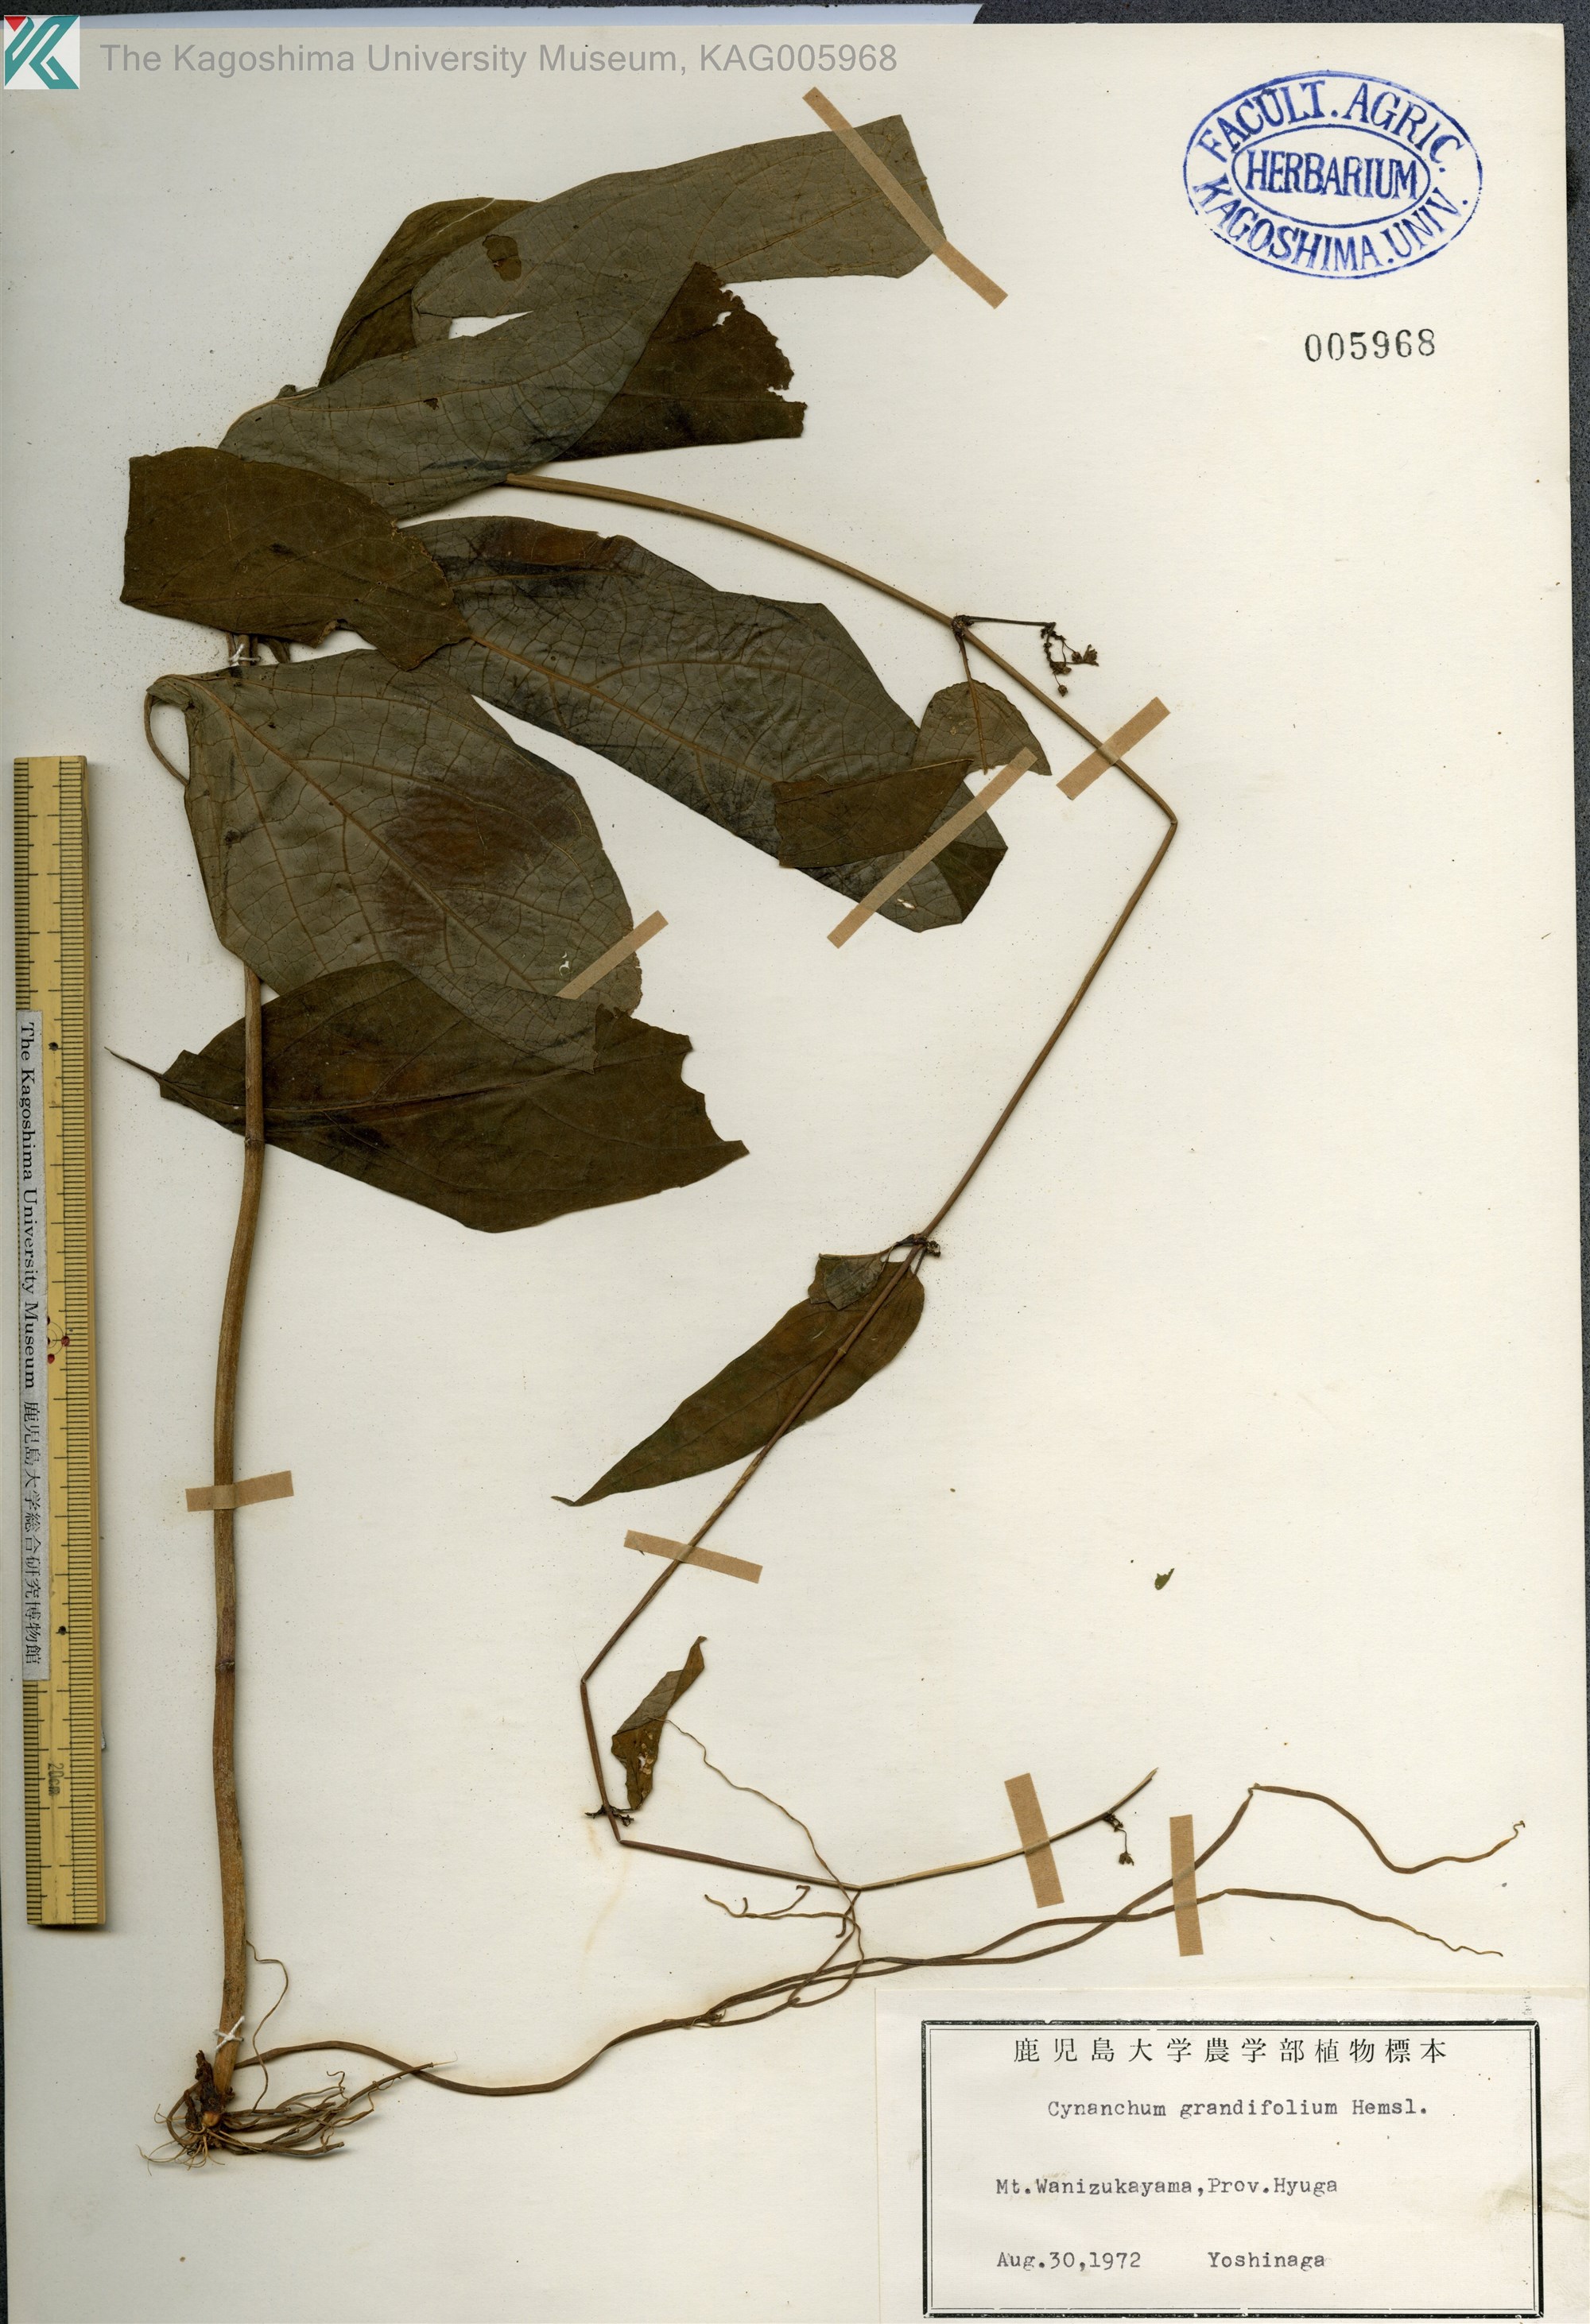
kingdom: Plantae
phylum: Tracheophyta
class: Magnoliopsida
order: Gentianales
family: Apocynaceae
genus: Vincetoxicum
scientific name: Vincetoxicum macrophyllum
